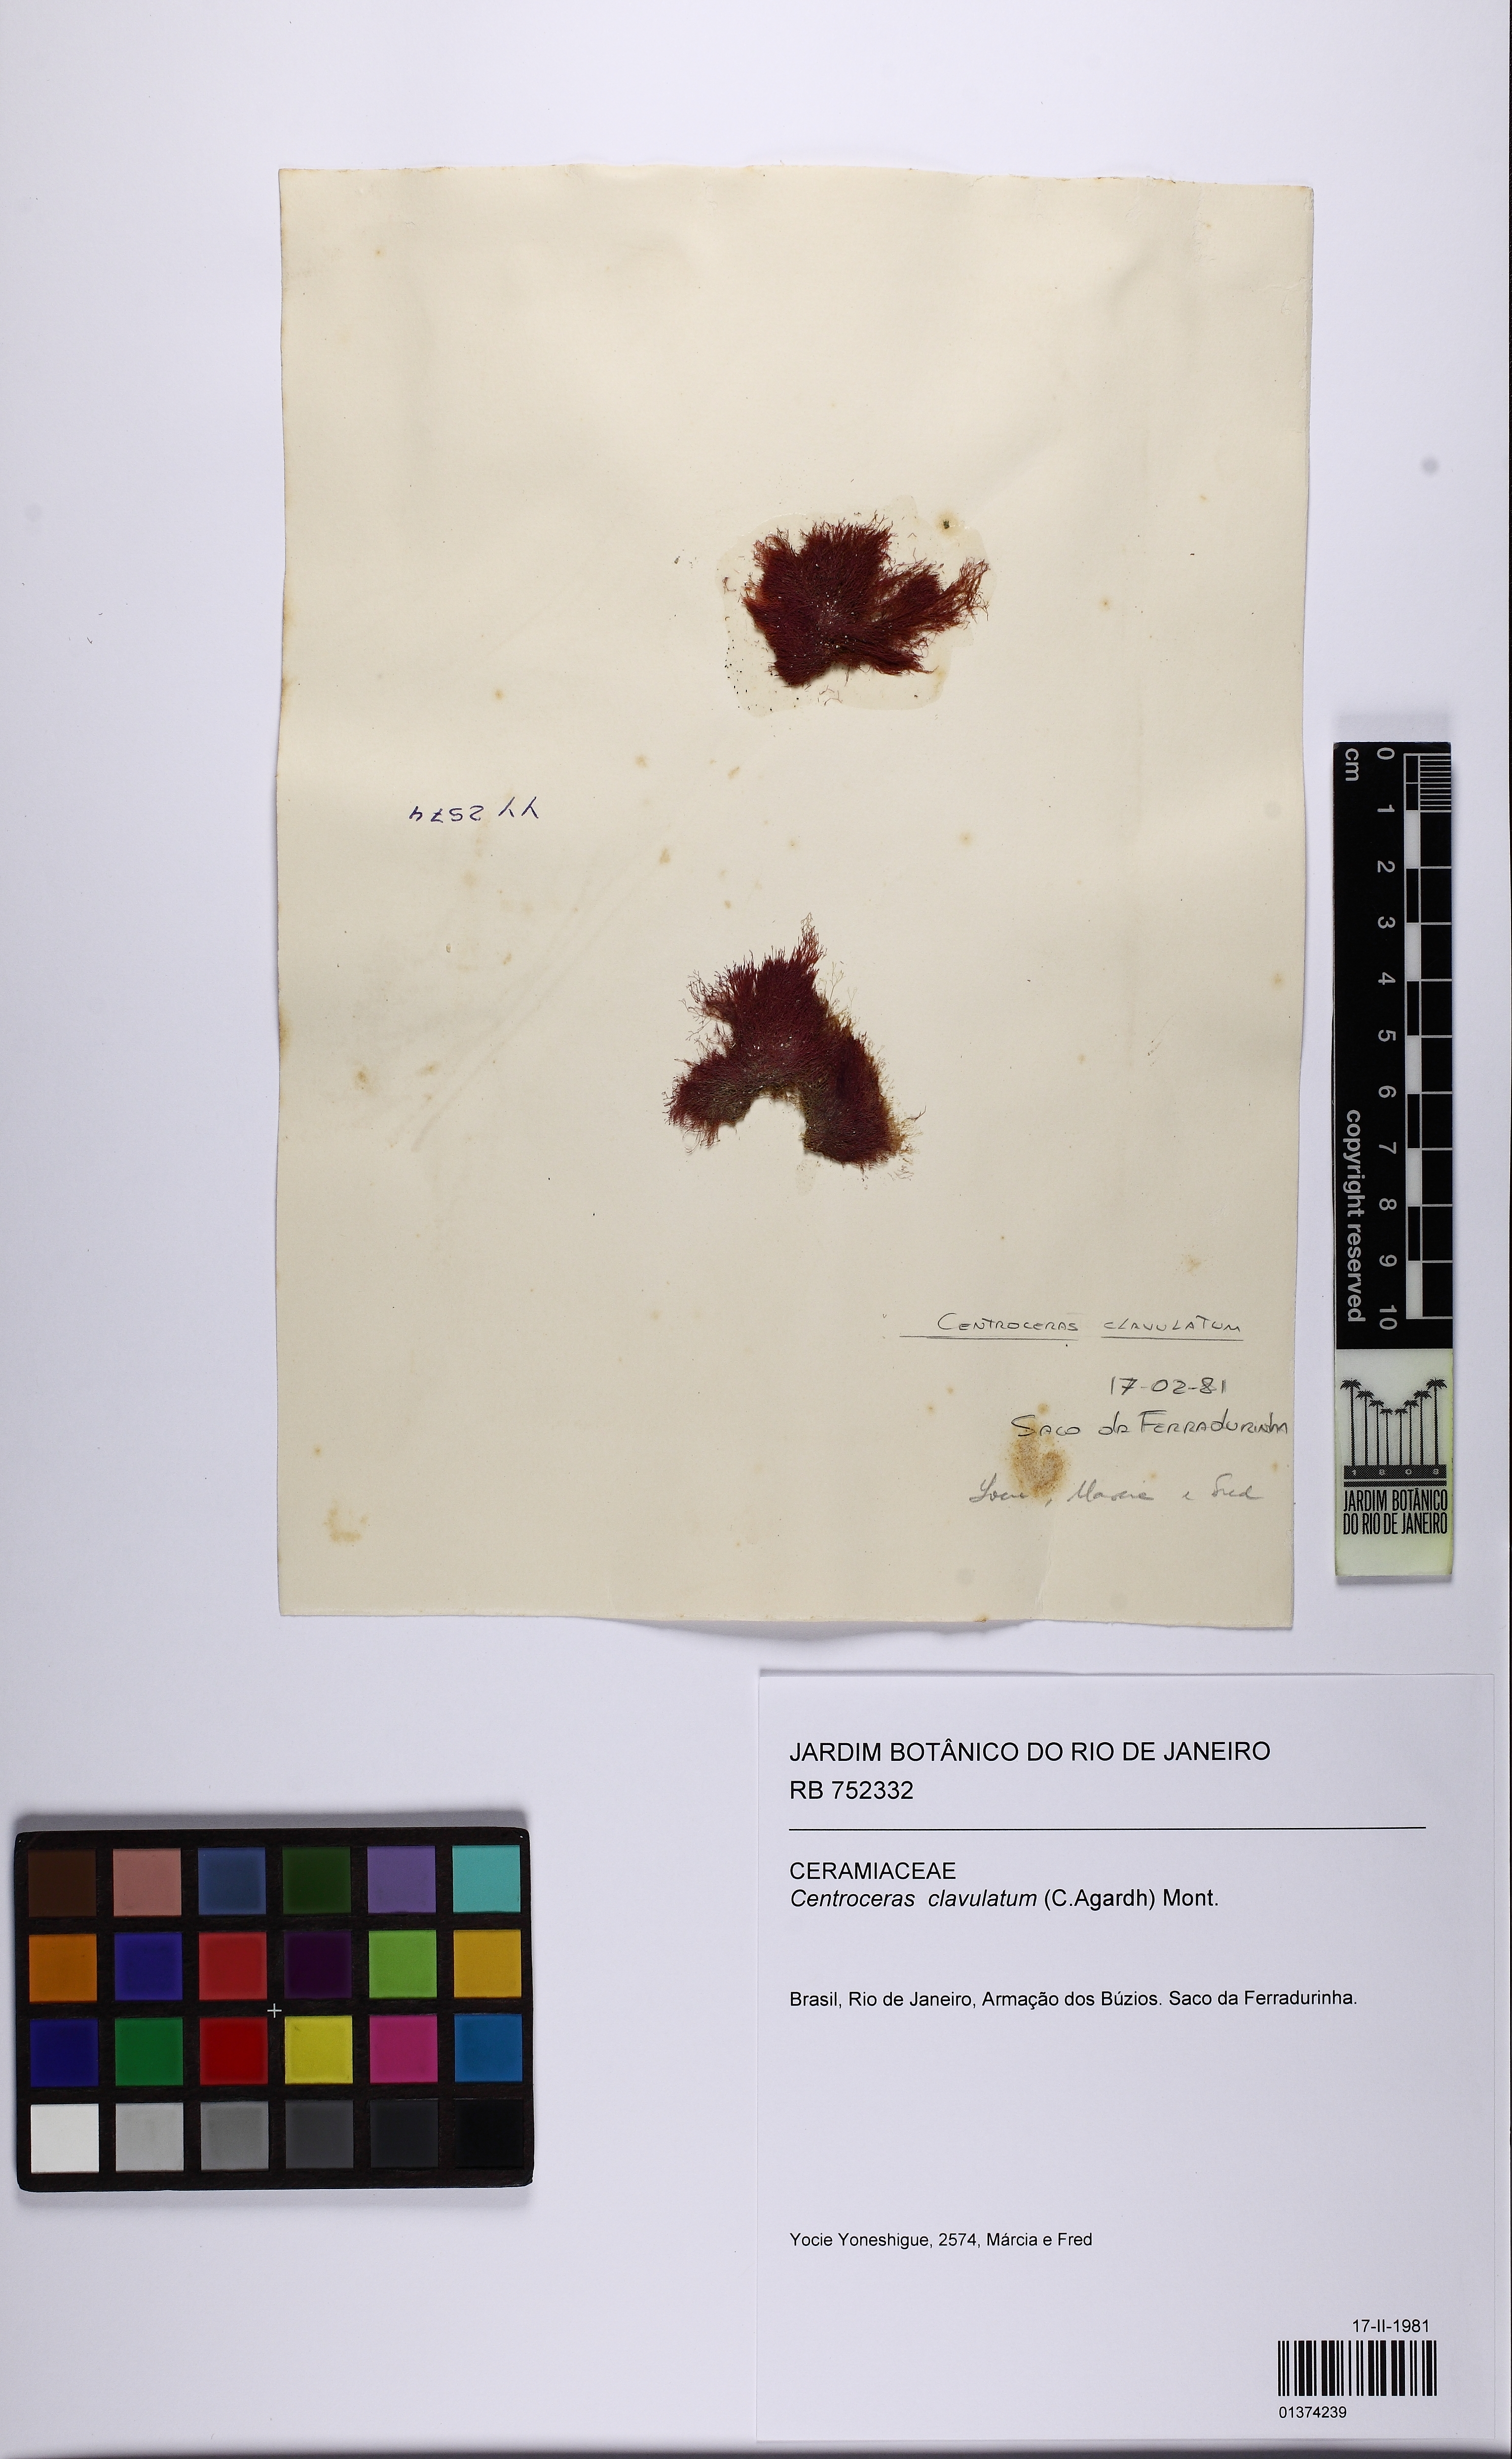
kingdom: Plantae
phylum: Rhodophyta
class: Florideophyceae
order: Ceramiales
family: Ceramiaceae
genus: Centroceras
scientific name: Centroceras clavulatum
